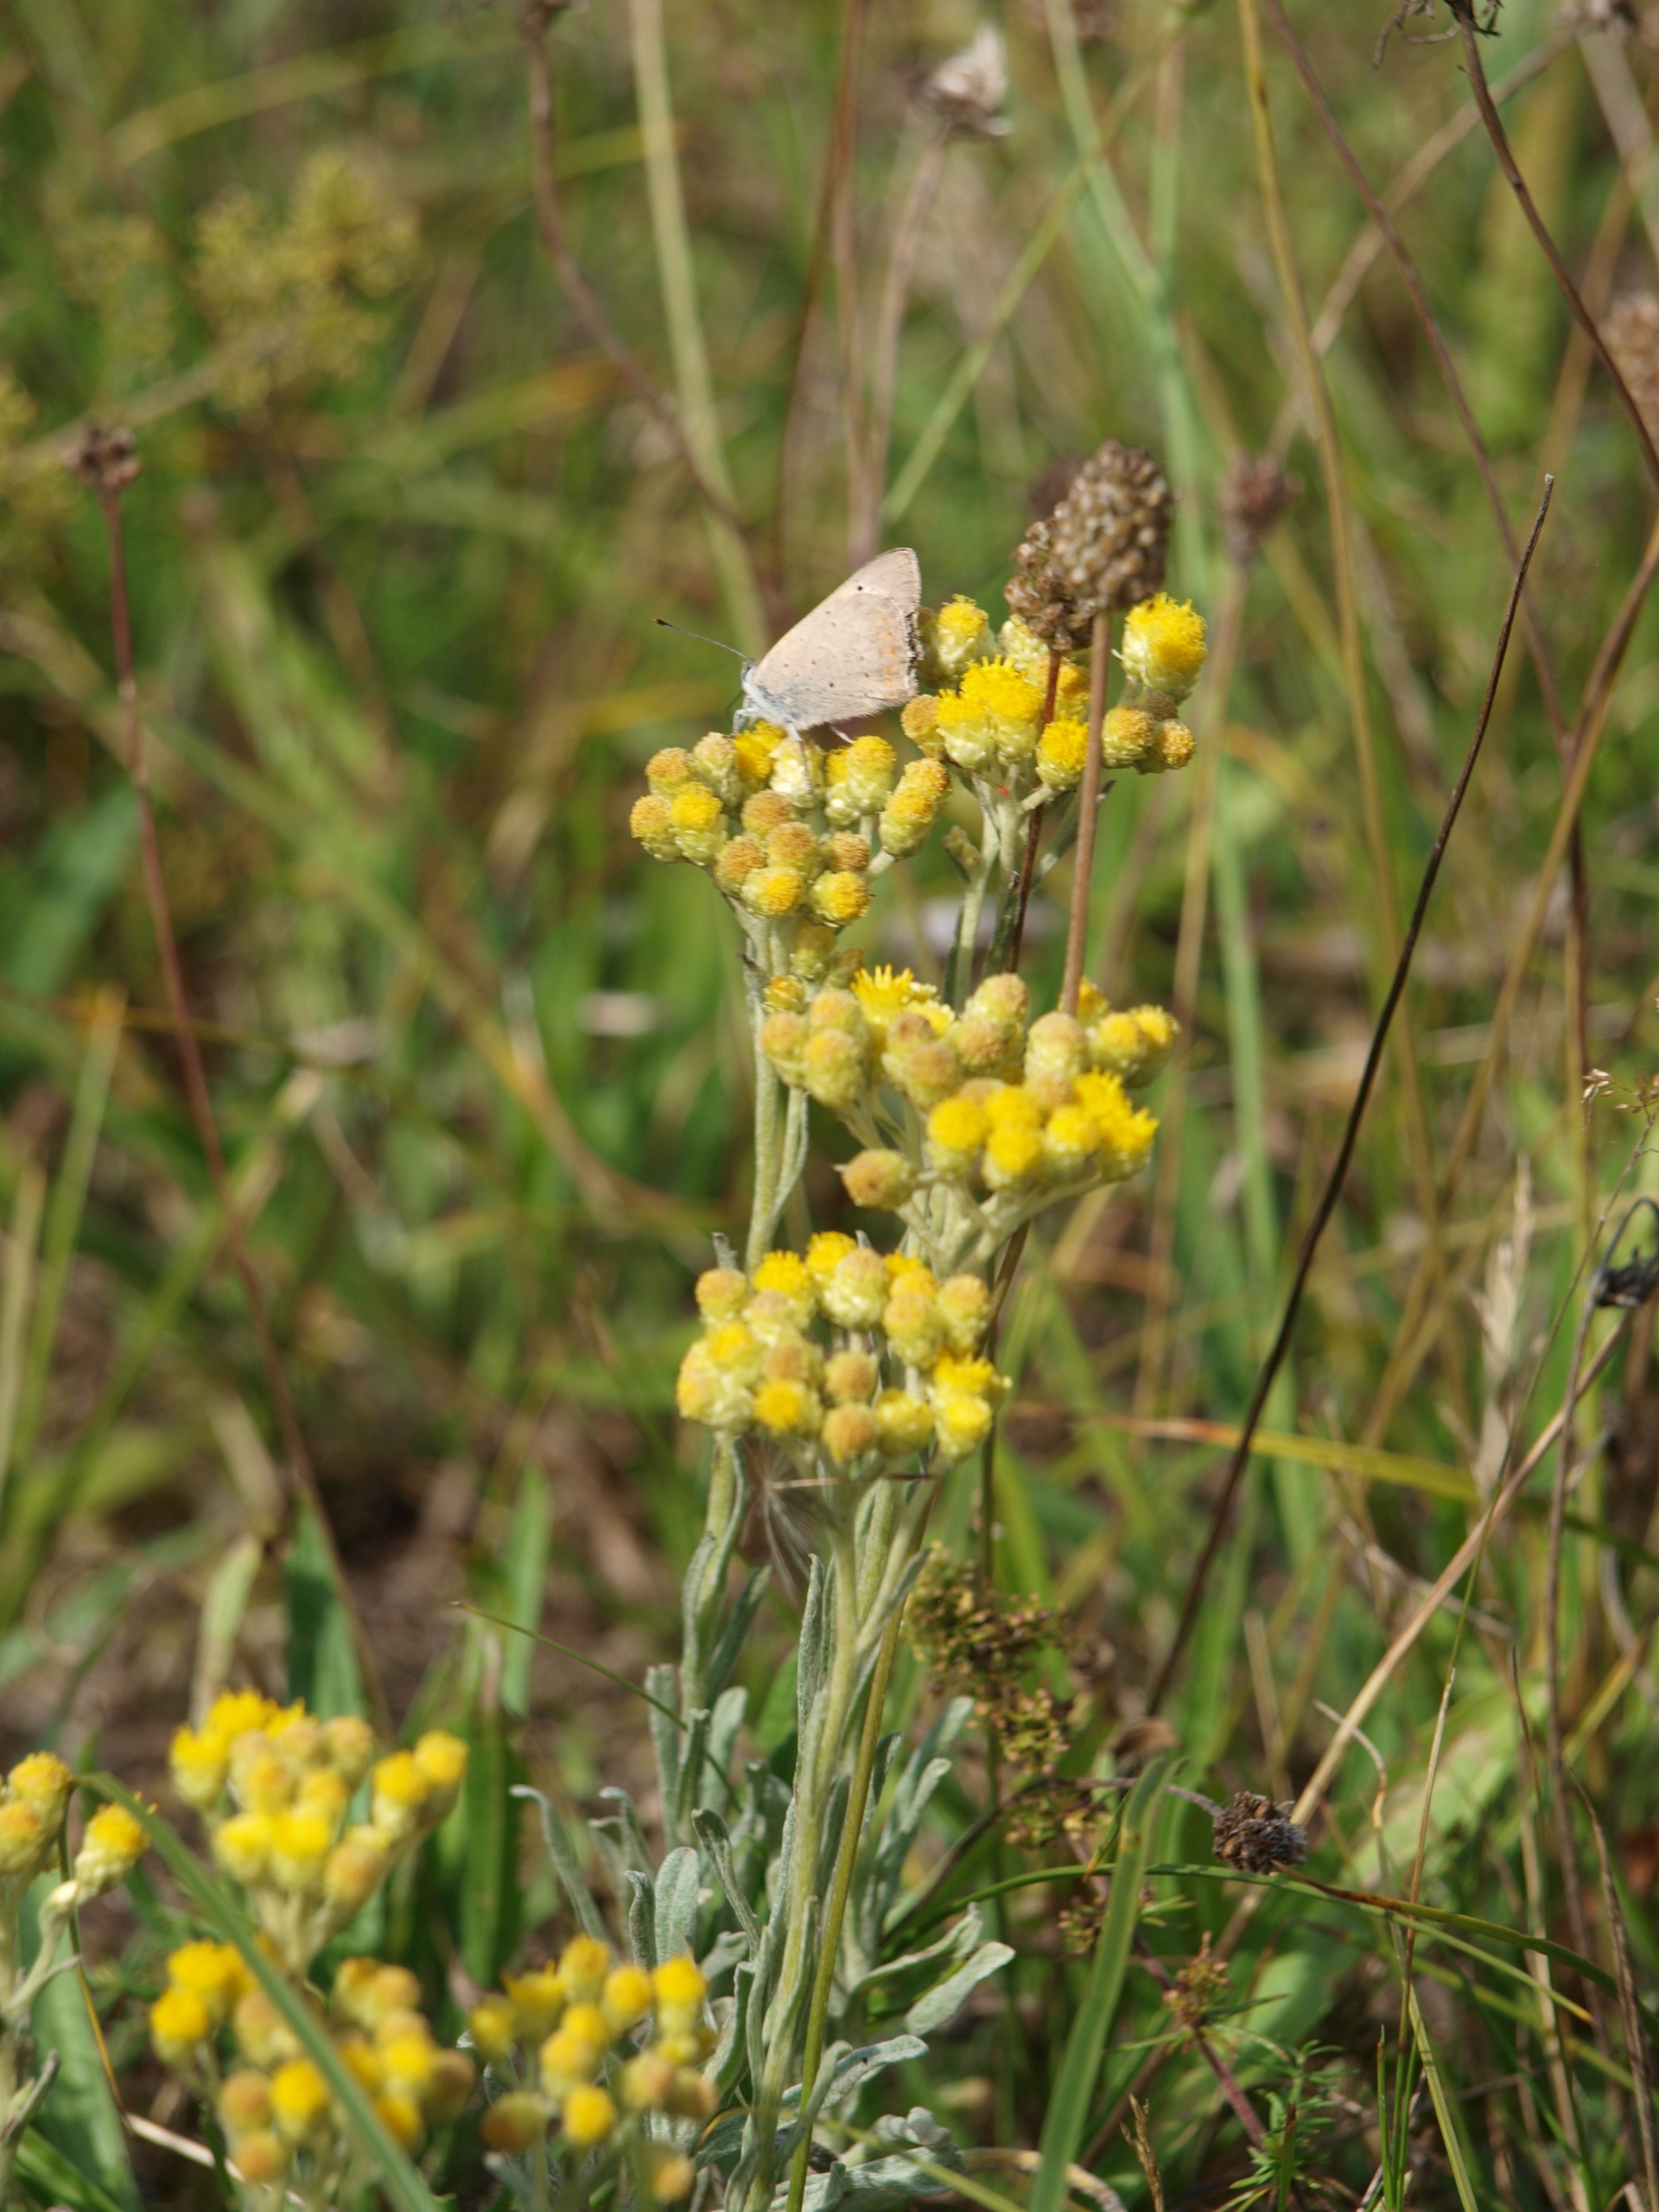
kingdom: Plantae
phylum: Tracheophyta
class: Magnoliopsida
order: Asterales
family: Asteraceae
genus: Helichrysum
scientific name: Helichrysum arenarium
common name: Gul evighedsblomst
